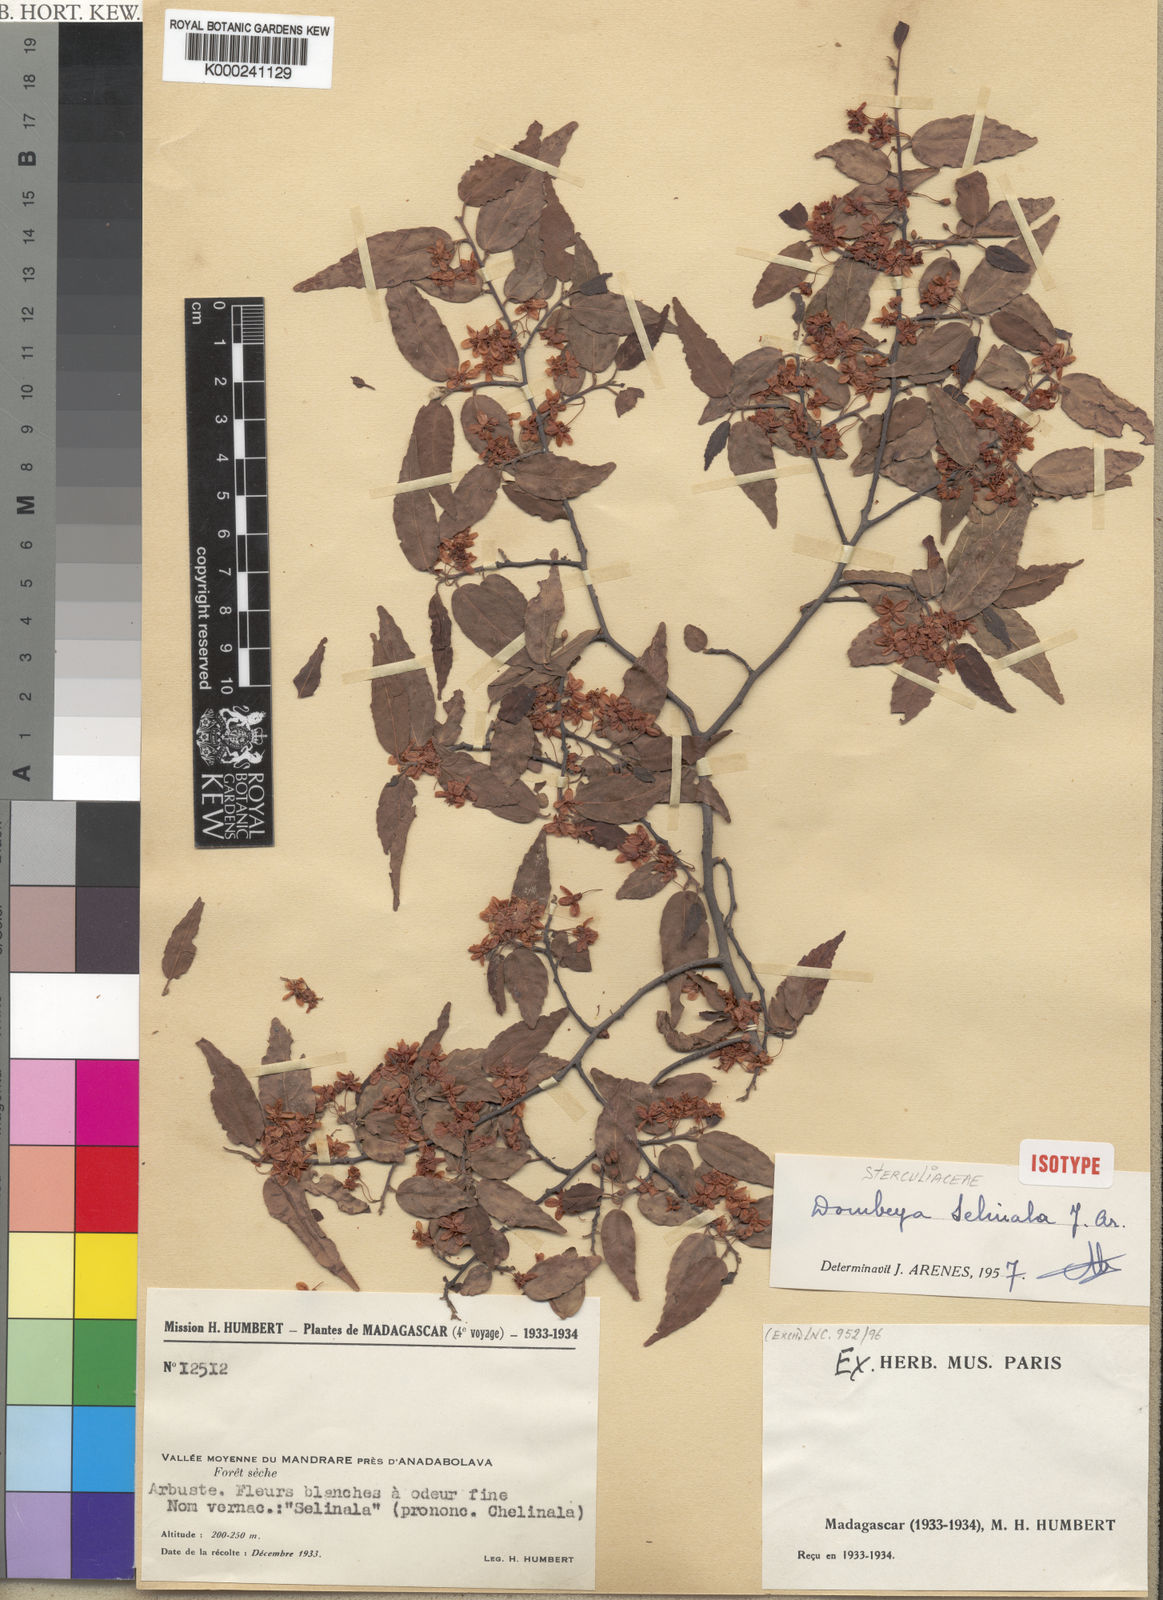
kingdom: Plantae
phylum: Tracheophyta
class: Magnoliopsida
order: Malvales
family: Malvaceae
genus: Dombeya
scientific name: Dombeya selinala
